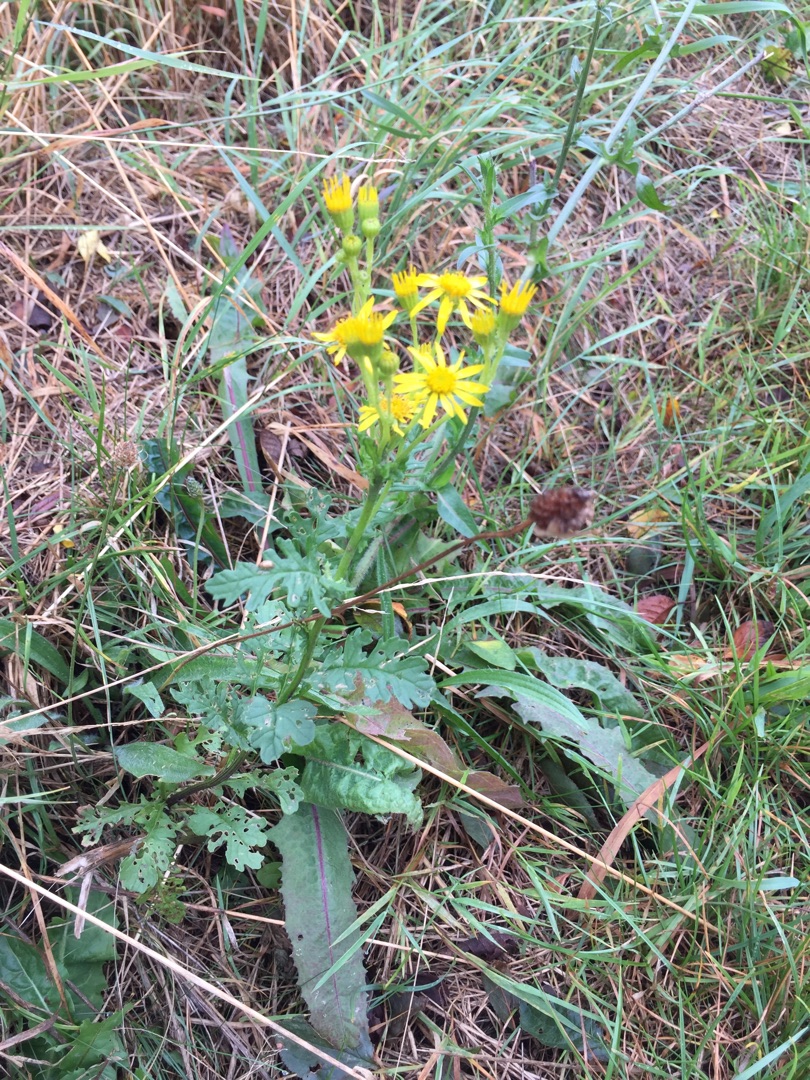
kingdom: Plantae
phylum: Tracheophyta
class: Magnoliopsida
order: Asterales
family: Asteraceae
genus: Jacobaea
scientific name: Jacobaea
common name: Jacobaea
